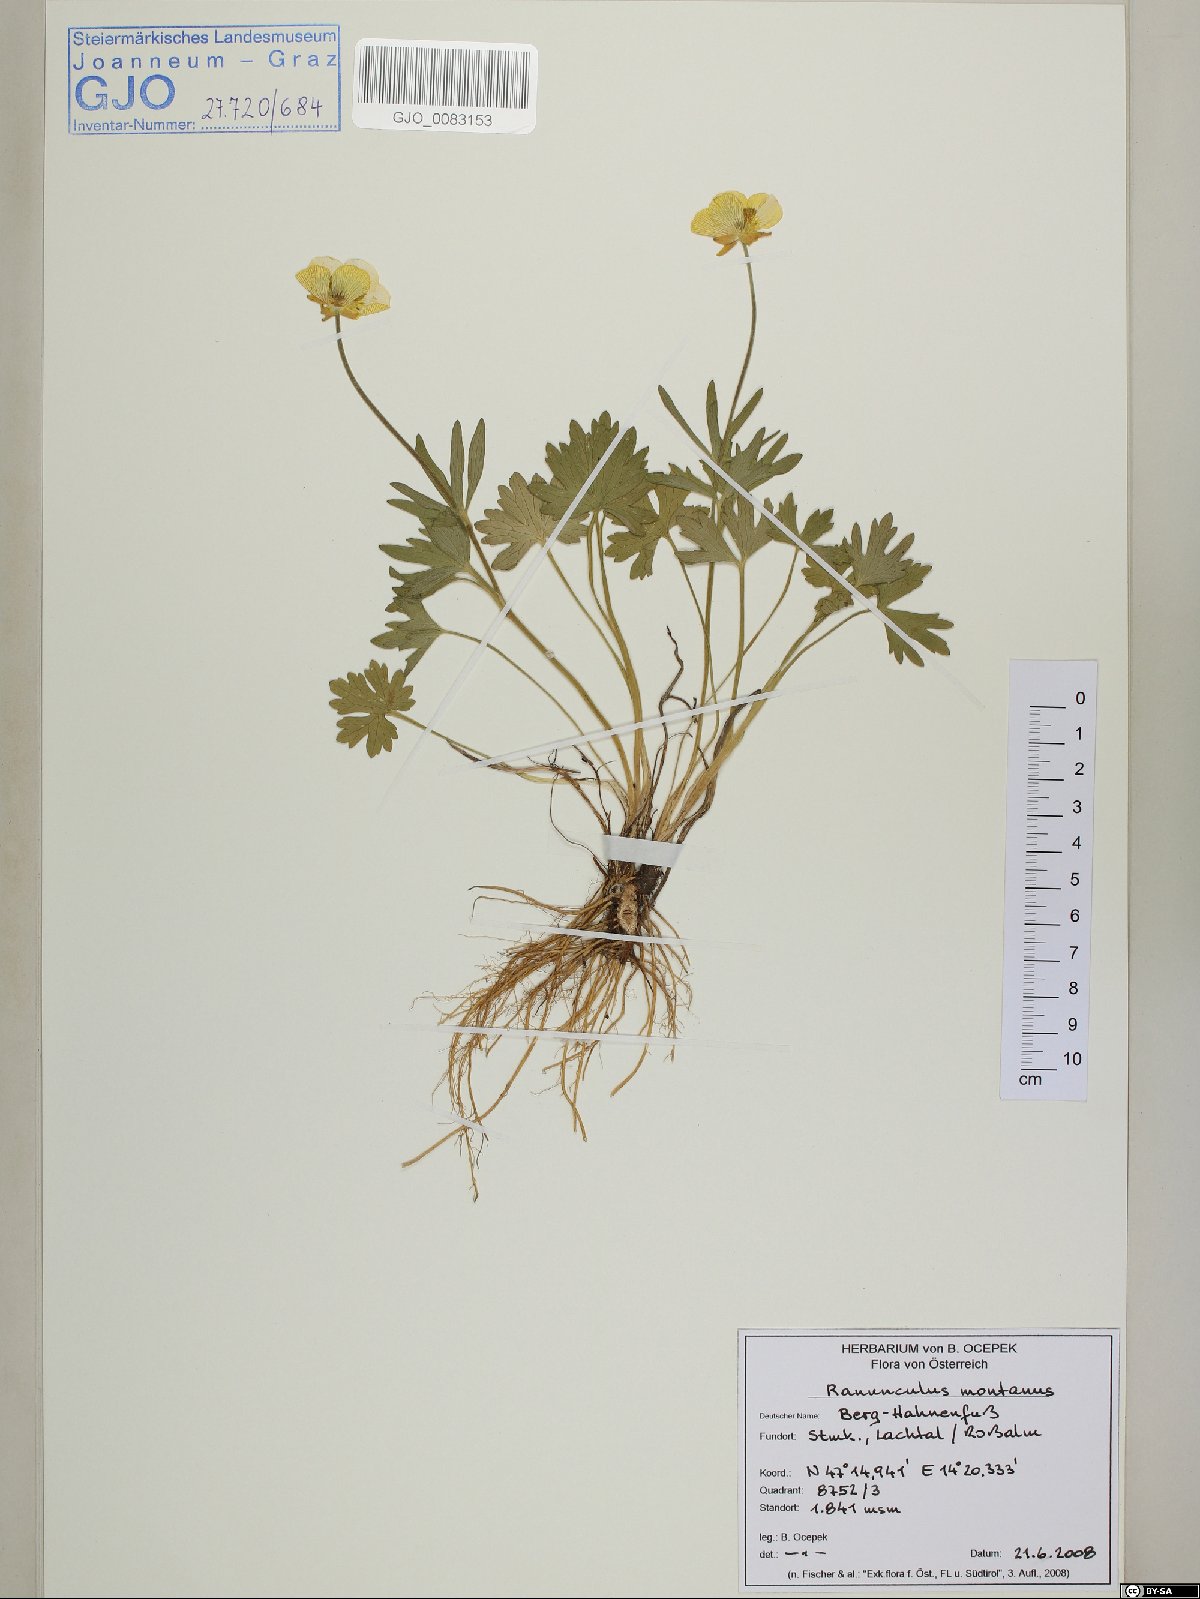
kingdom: Plantae
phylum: Tracheophyta
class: Magnoliopsida
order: Ranunculales
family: Ranunculaceae
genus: Ranunculus
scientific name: Ranunculus montanus
